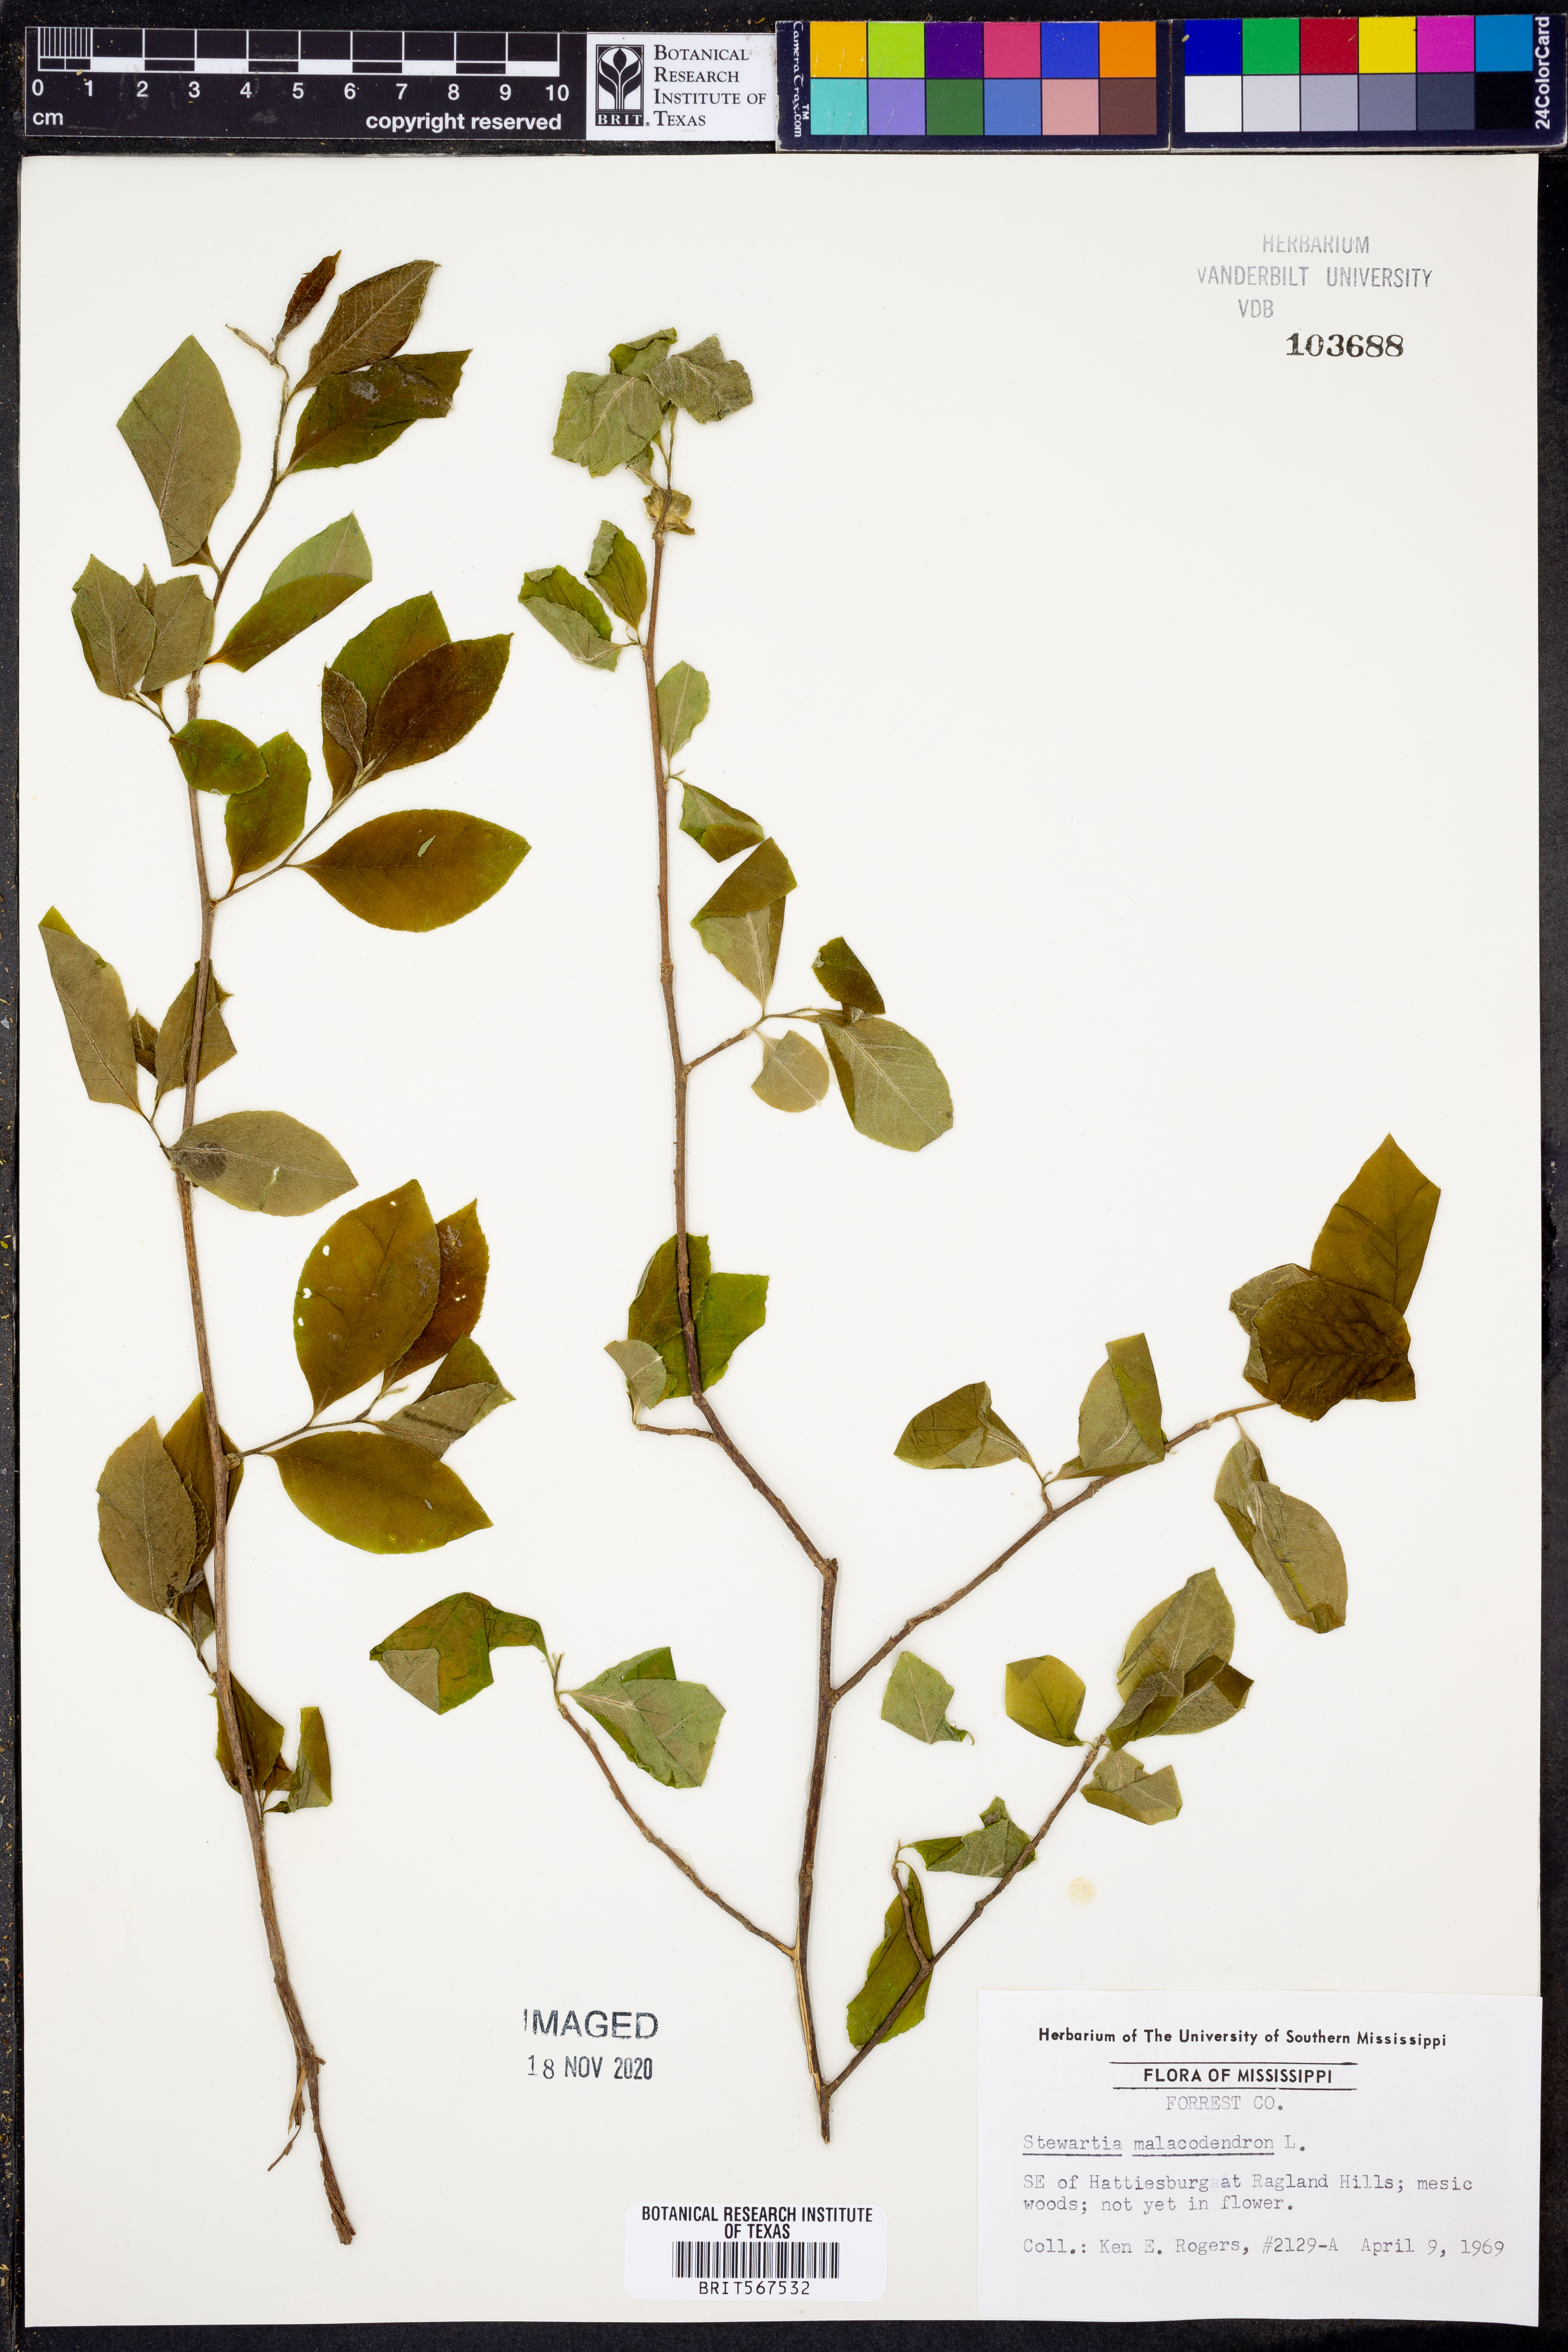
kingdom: Plantae
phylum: Tracheophyta
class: Magnoliopsida
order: Ericales
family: Theaceae
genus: Stewartia
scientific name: Stewartia malacodendron
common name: Virginia stewartia
